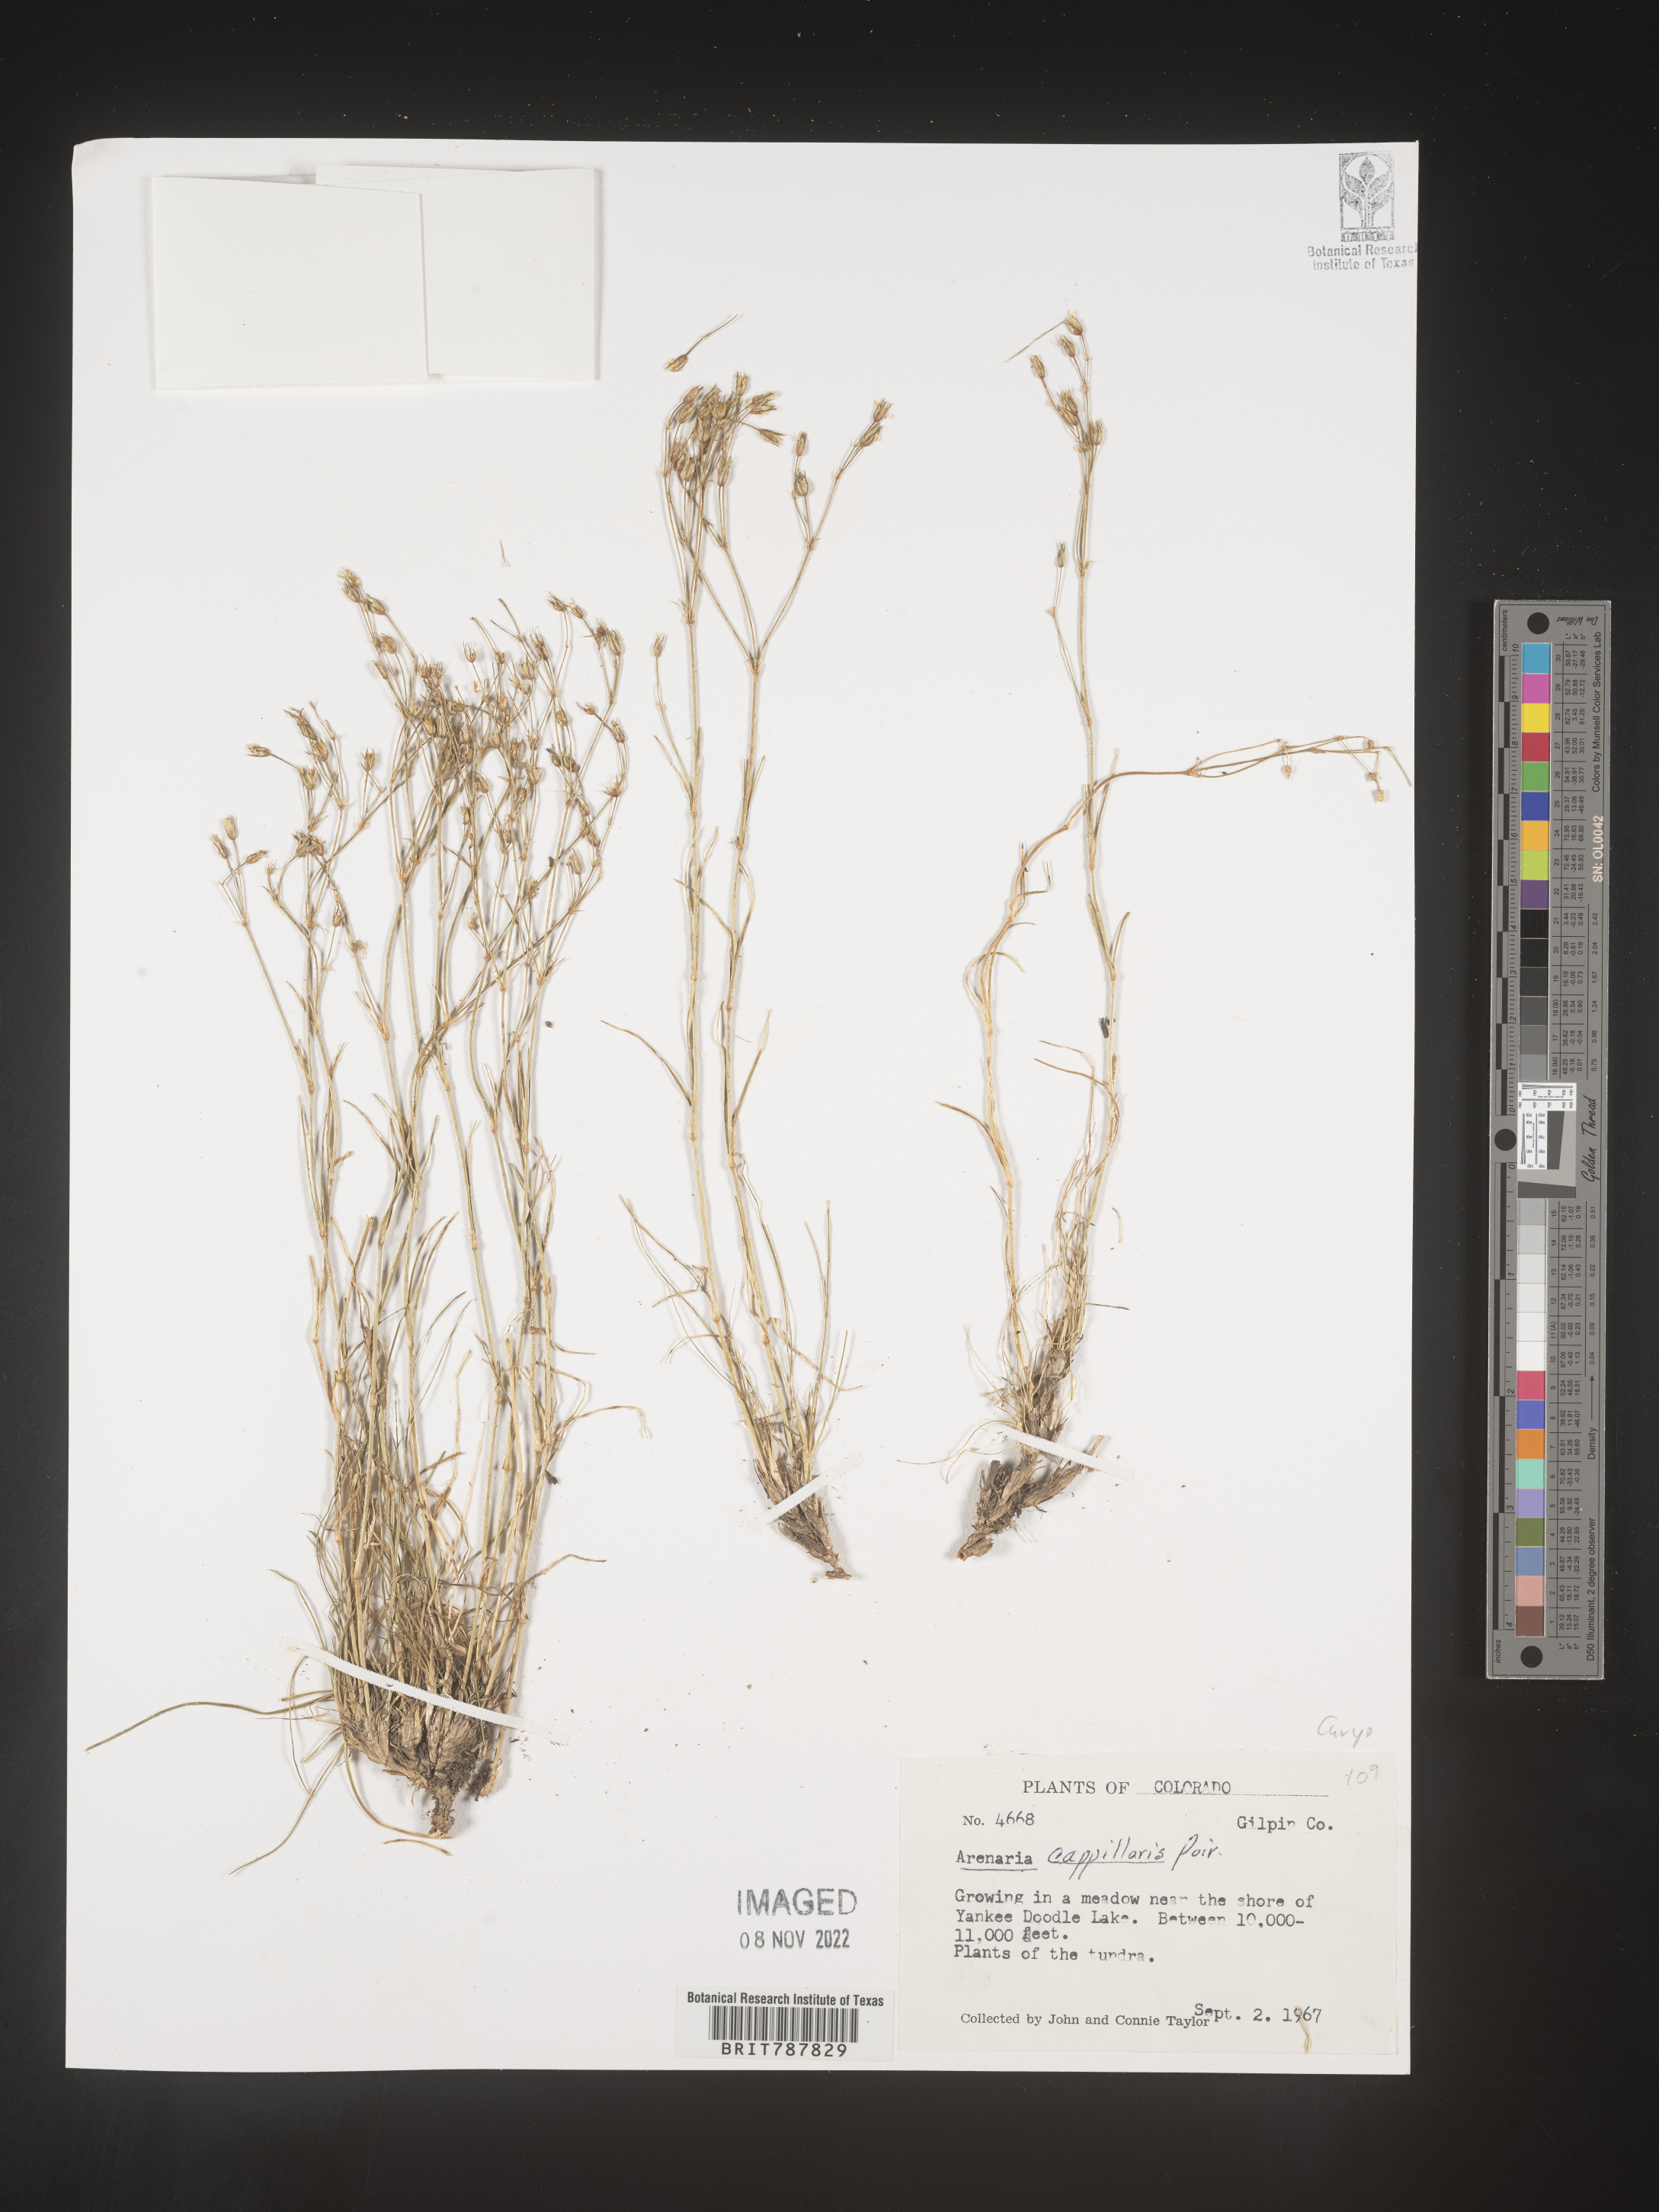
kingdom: Plantae
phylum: Tracheophyta
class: Magnoliopsida
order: Caryophyllales
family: Caryophyllaceae
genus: Arenaria
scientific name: Arenaria
